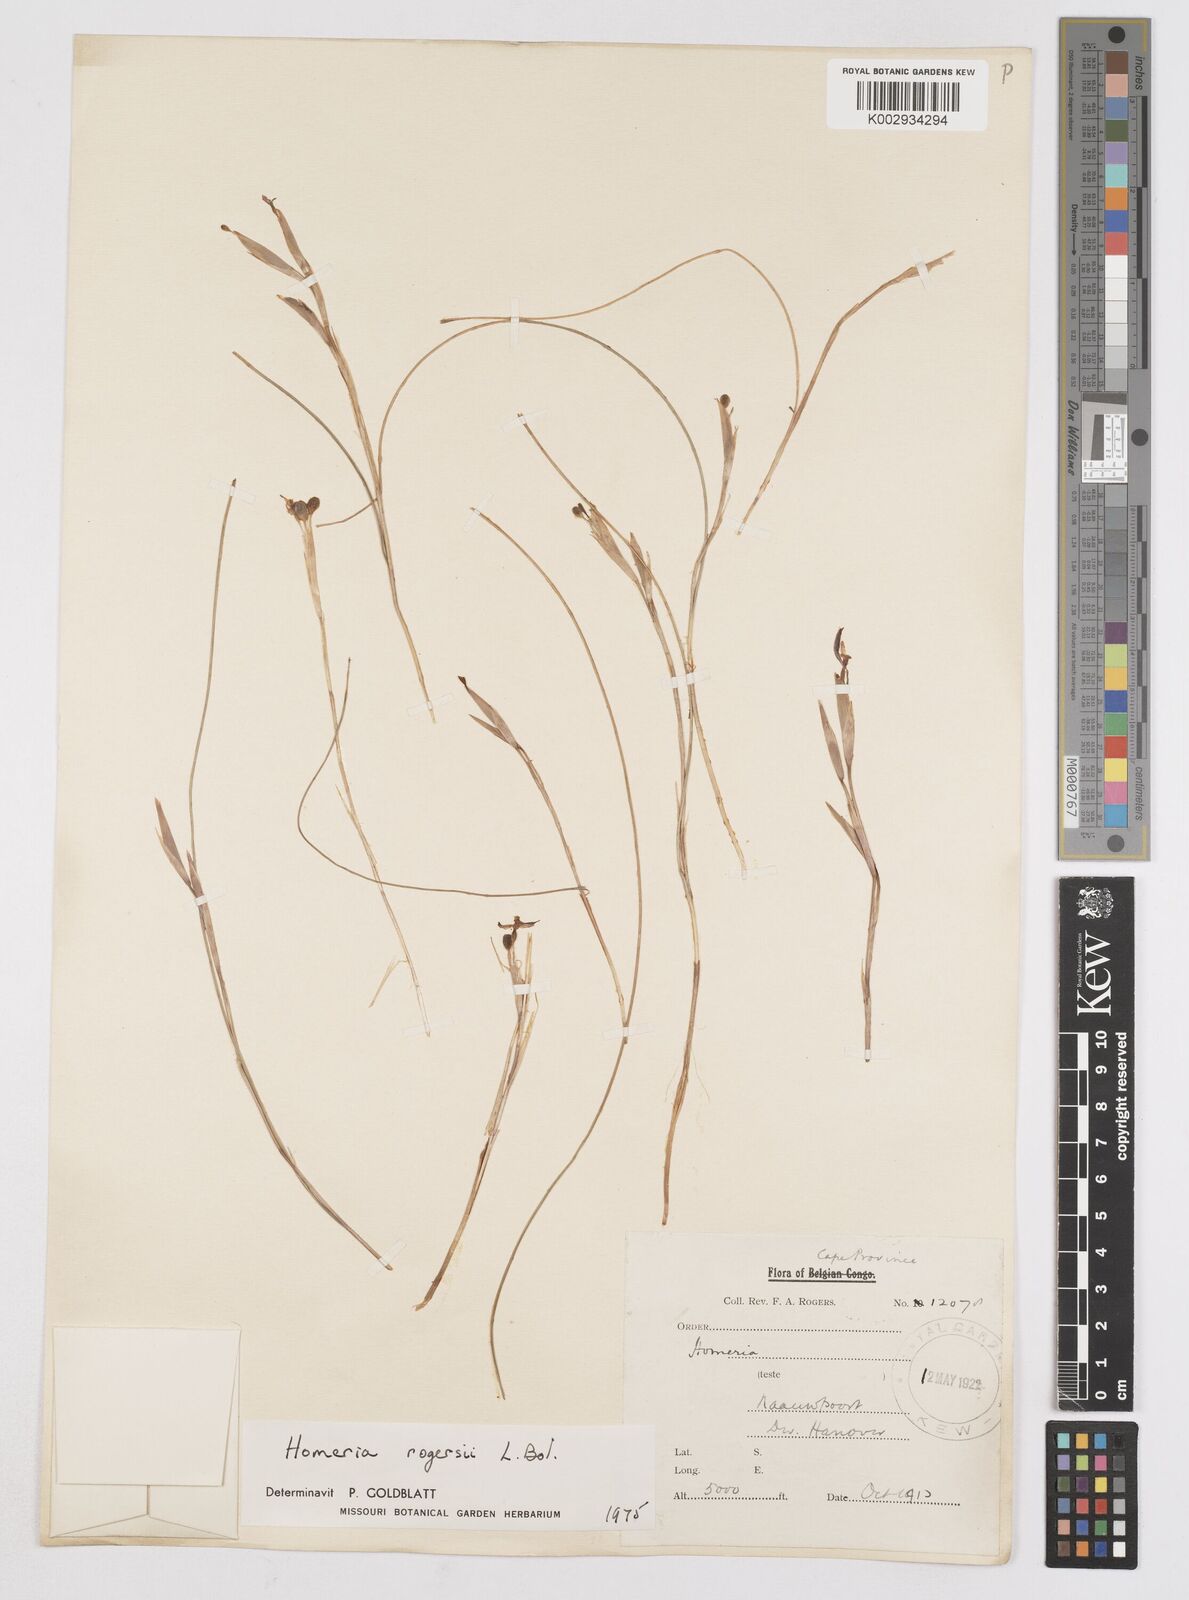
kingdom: Plantae
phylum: Tracheophyta
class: Liliopsida
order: Asparagales
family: Iridaceae
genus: Moraea
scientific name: Moraea crispa
